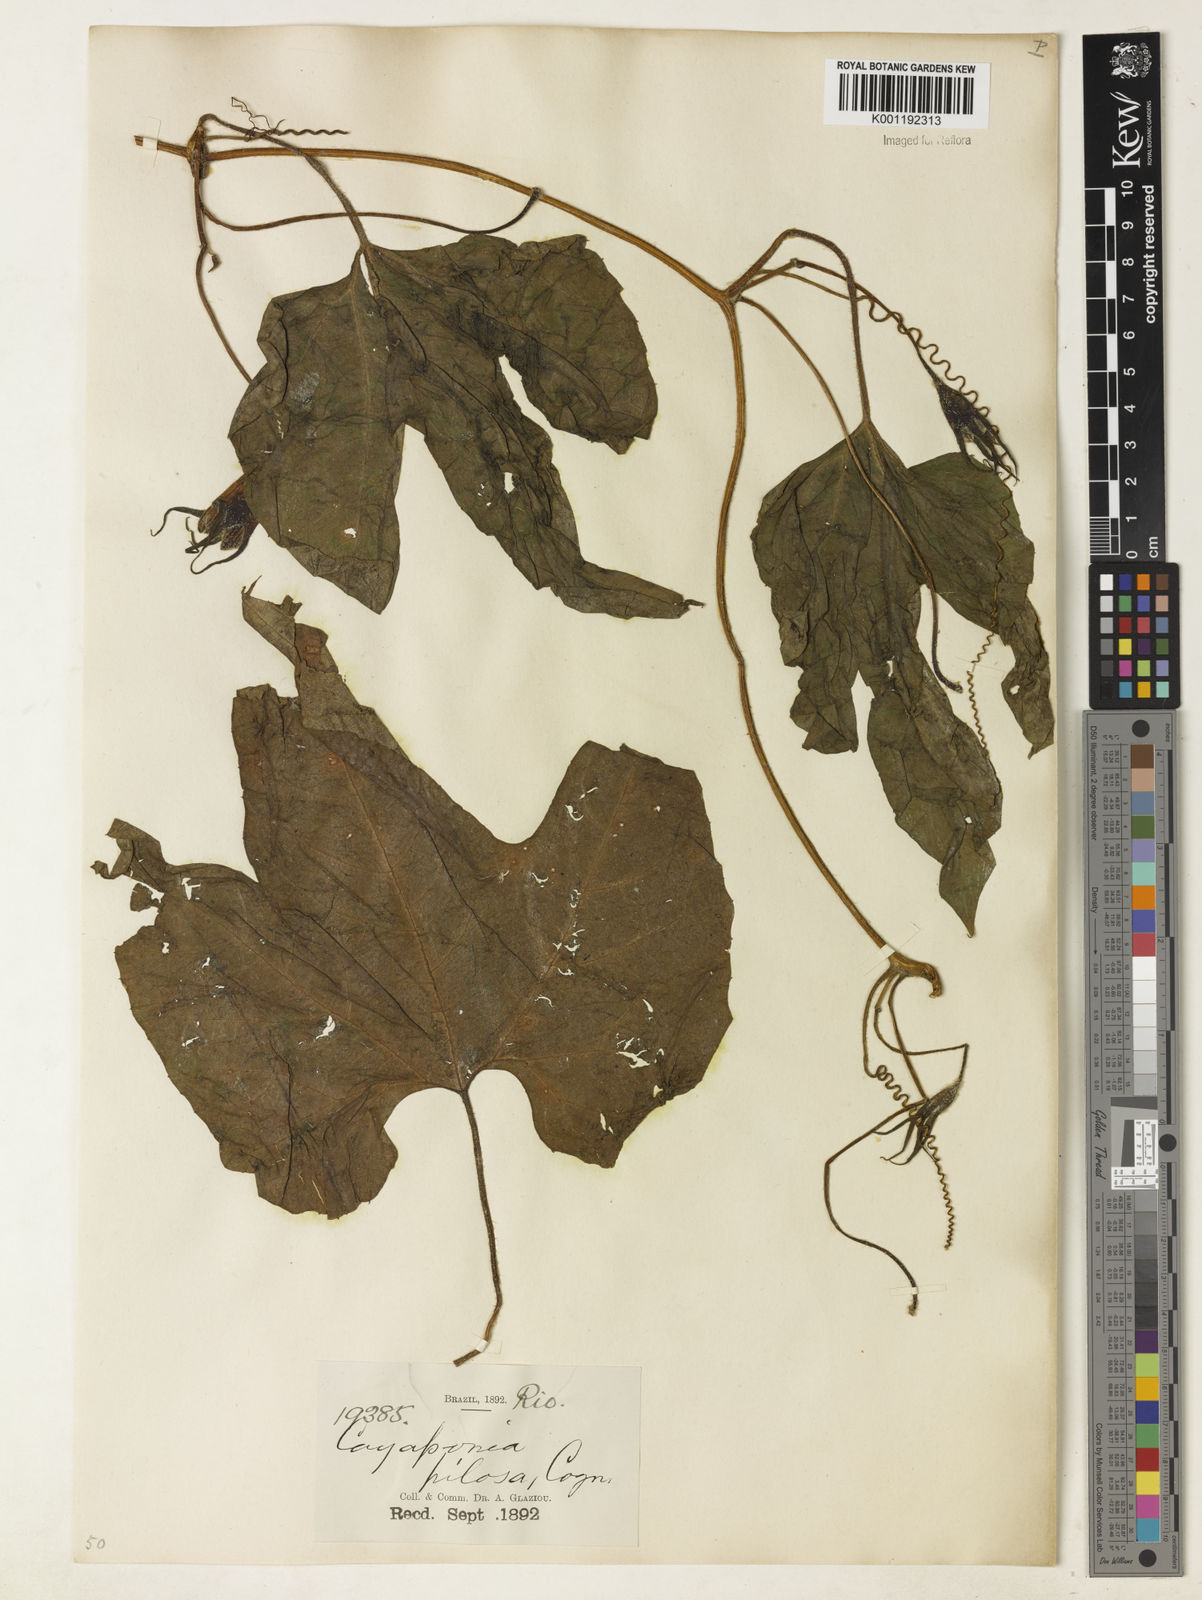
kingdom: Plantae
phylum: Tracheophyta
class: Magnoliopsida
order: Cucurbitales
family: Cucurbitaceae
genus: Cayaponia
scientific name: Cayaponia pilosa
